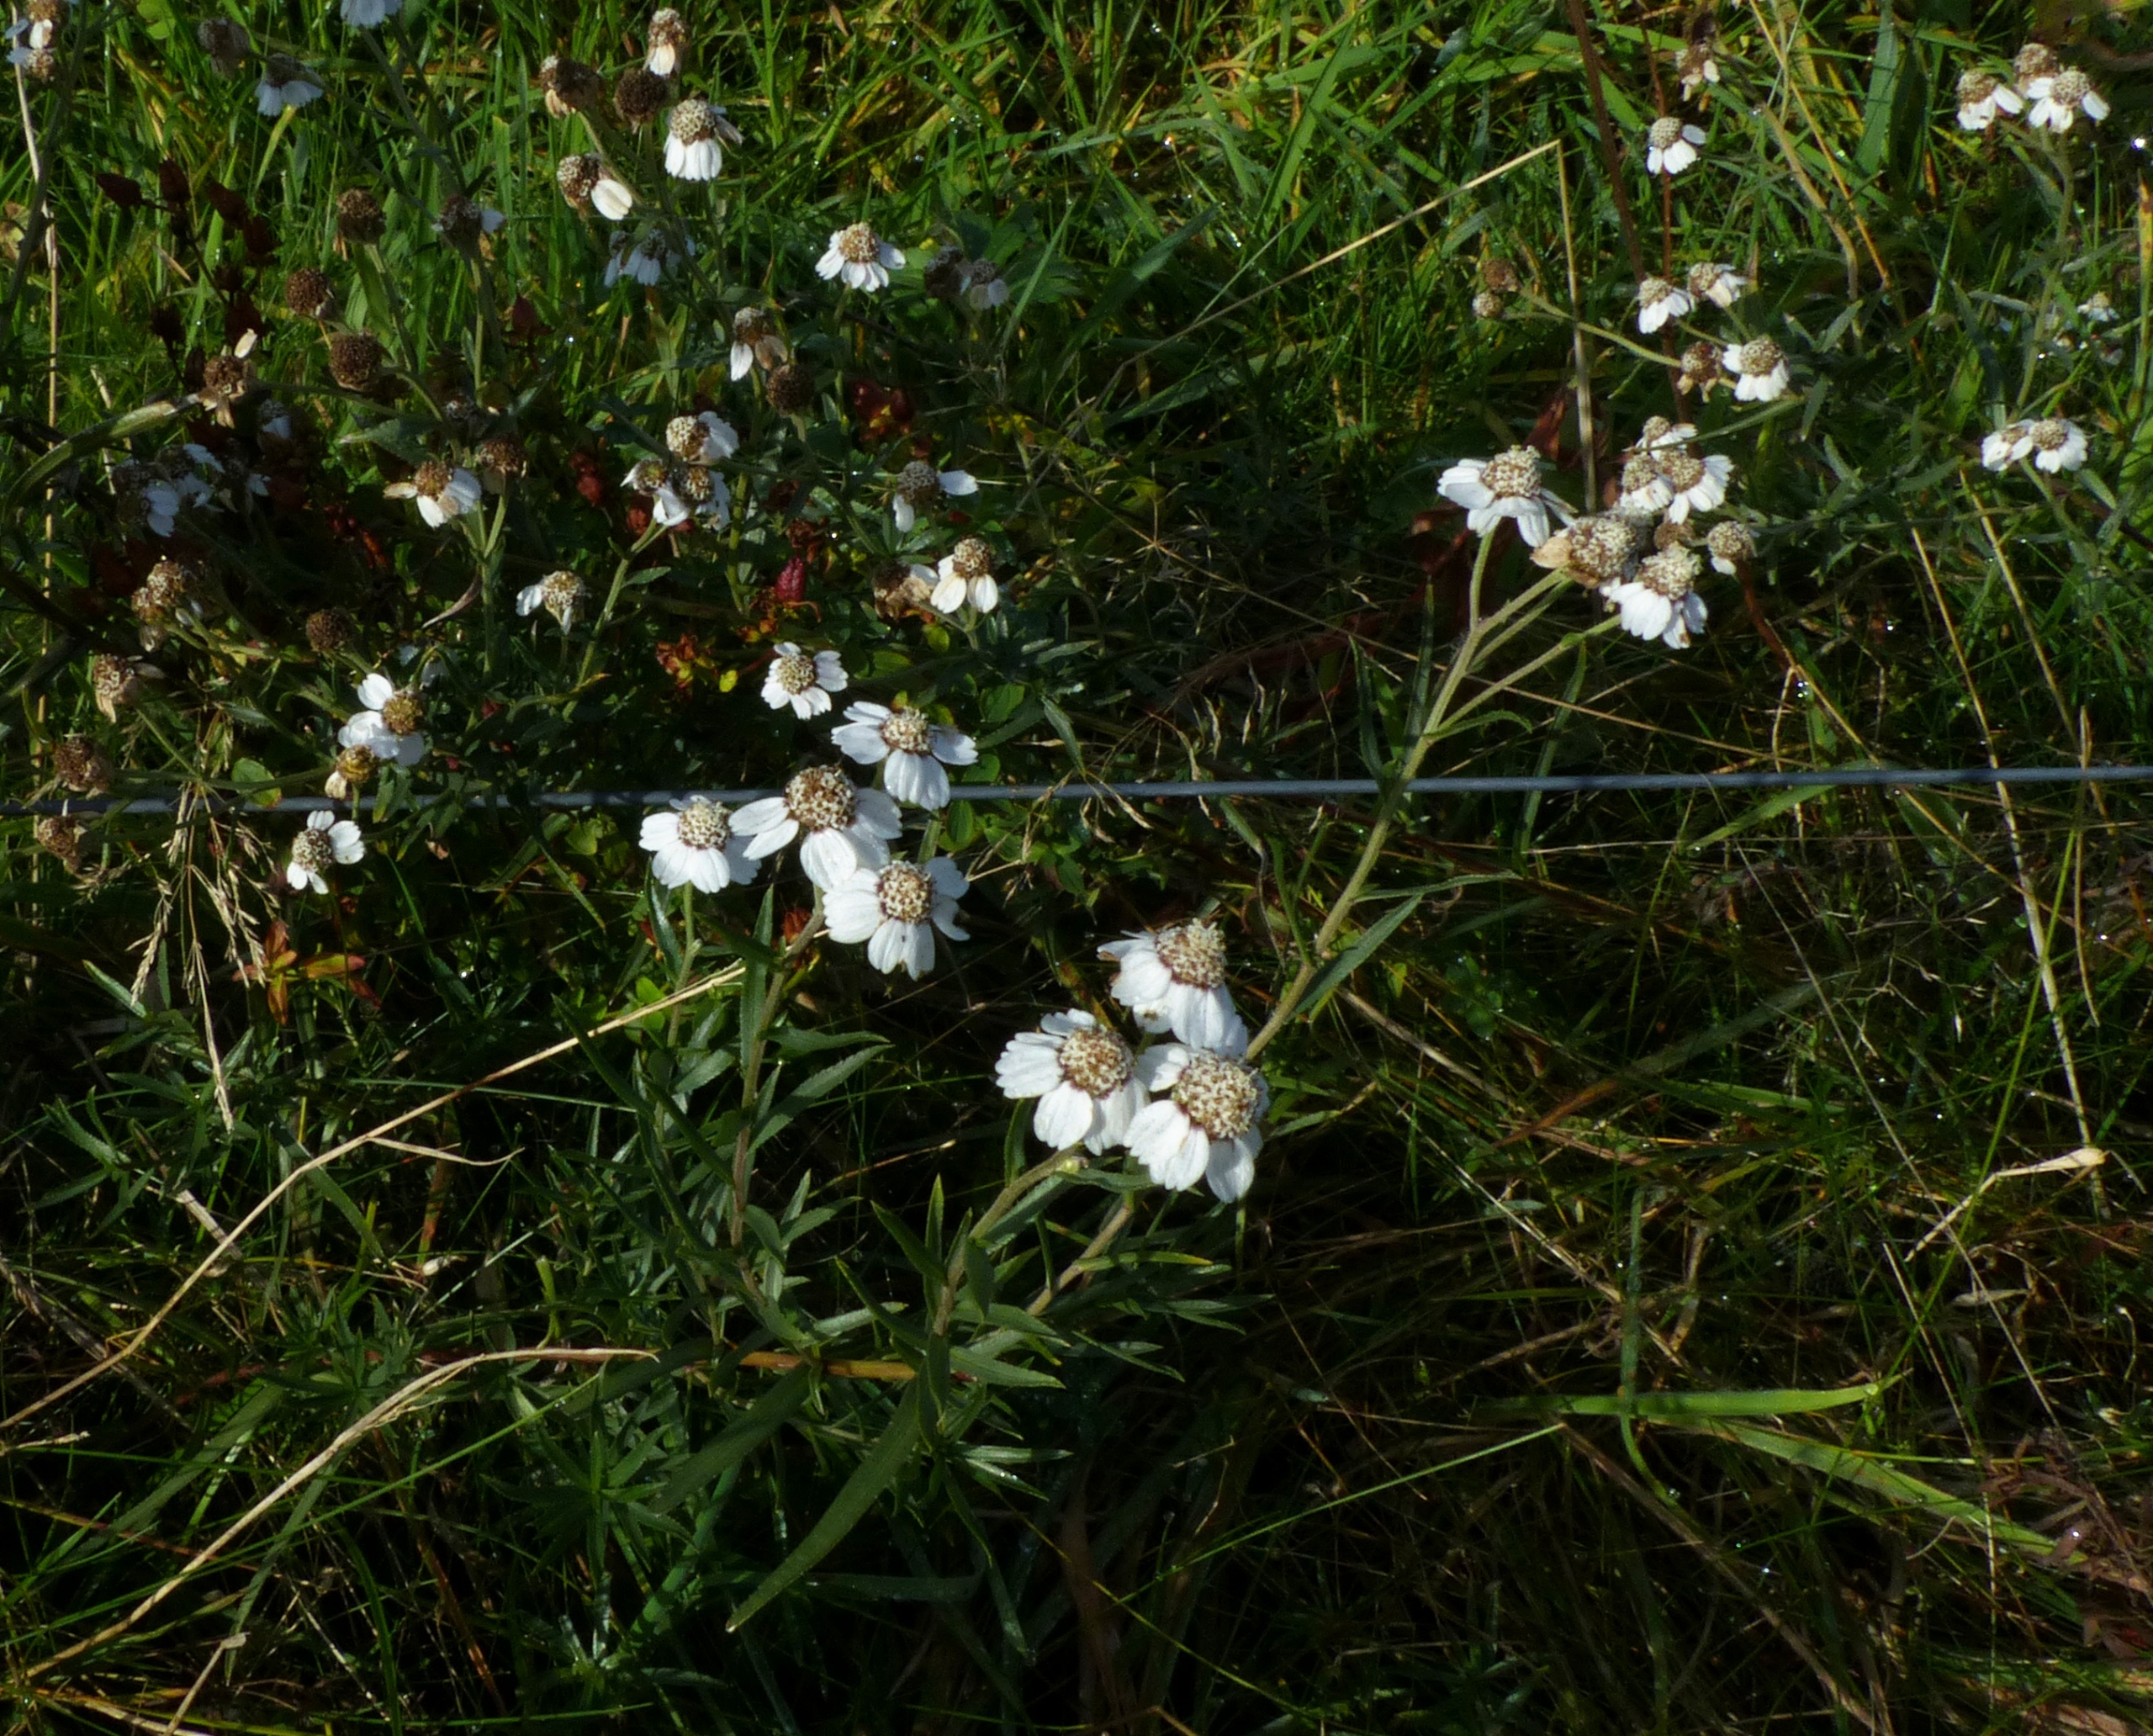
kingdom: Plantae
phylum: Tracheophyta
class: Magnoliopsida
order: Asterales
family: Asteraceae
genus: Achillea
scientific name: Achillea ptarmica
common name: Nyse-røllike
